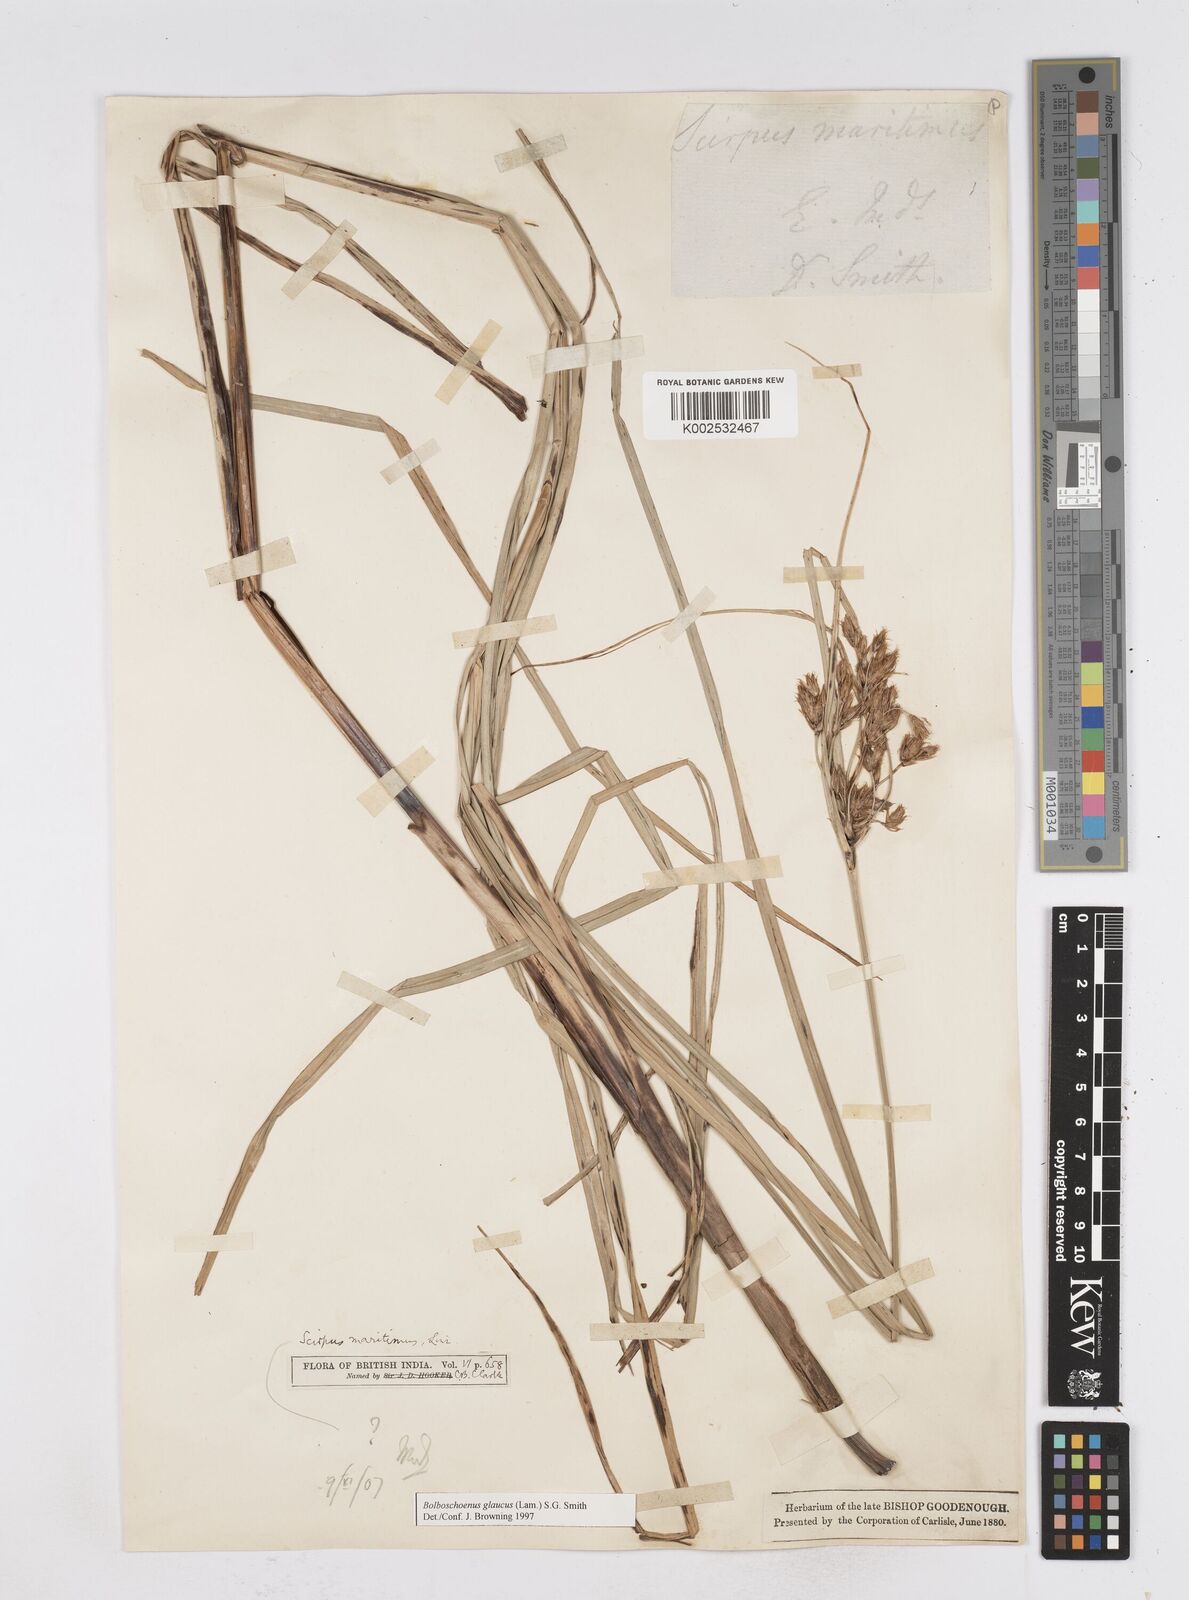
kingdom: Plantae
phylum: Tracheophyta
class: Liliopsida
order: Poales
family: Cyperaceae
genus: Bolboschoenus
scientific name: Bolboschoenus maritimus
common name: Sea club-rush
